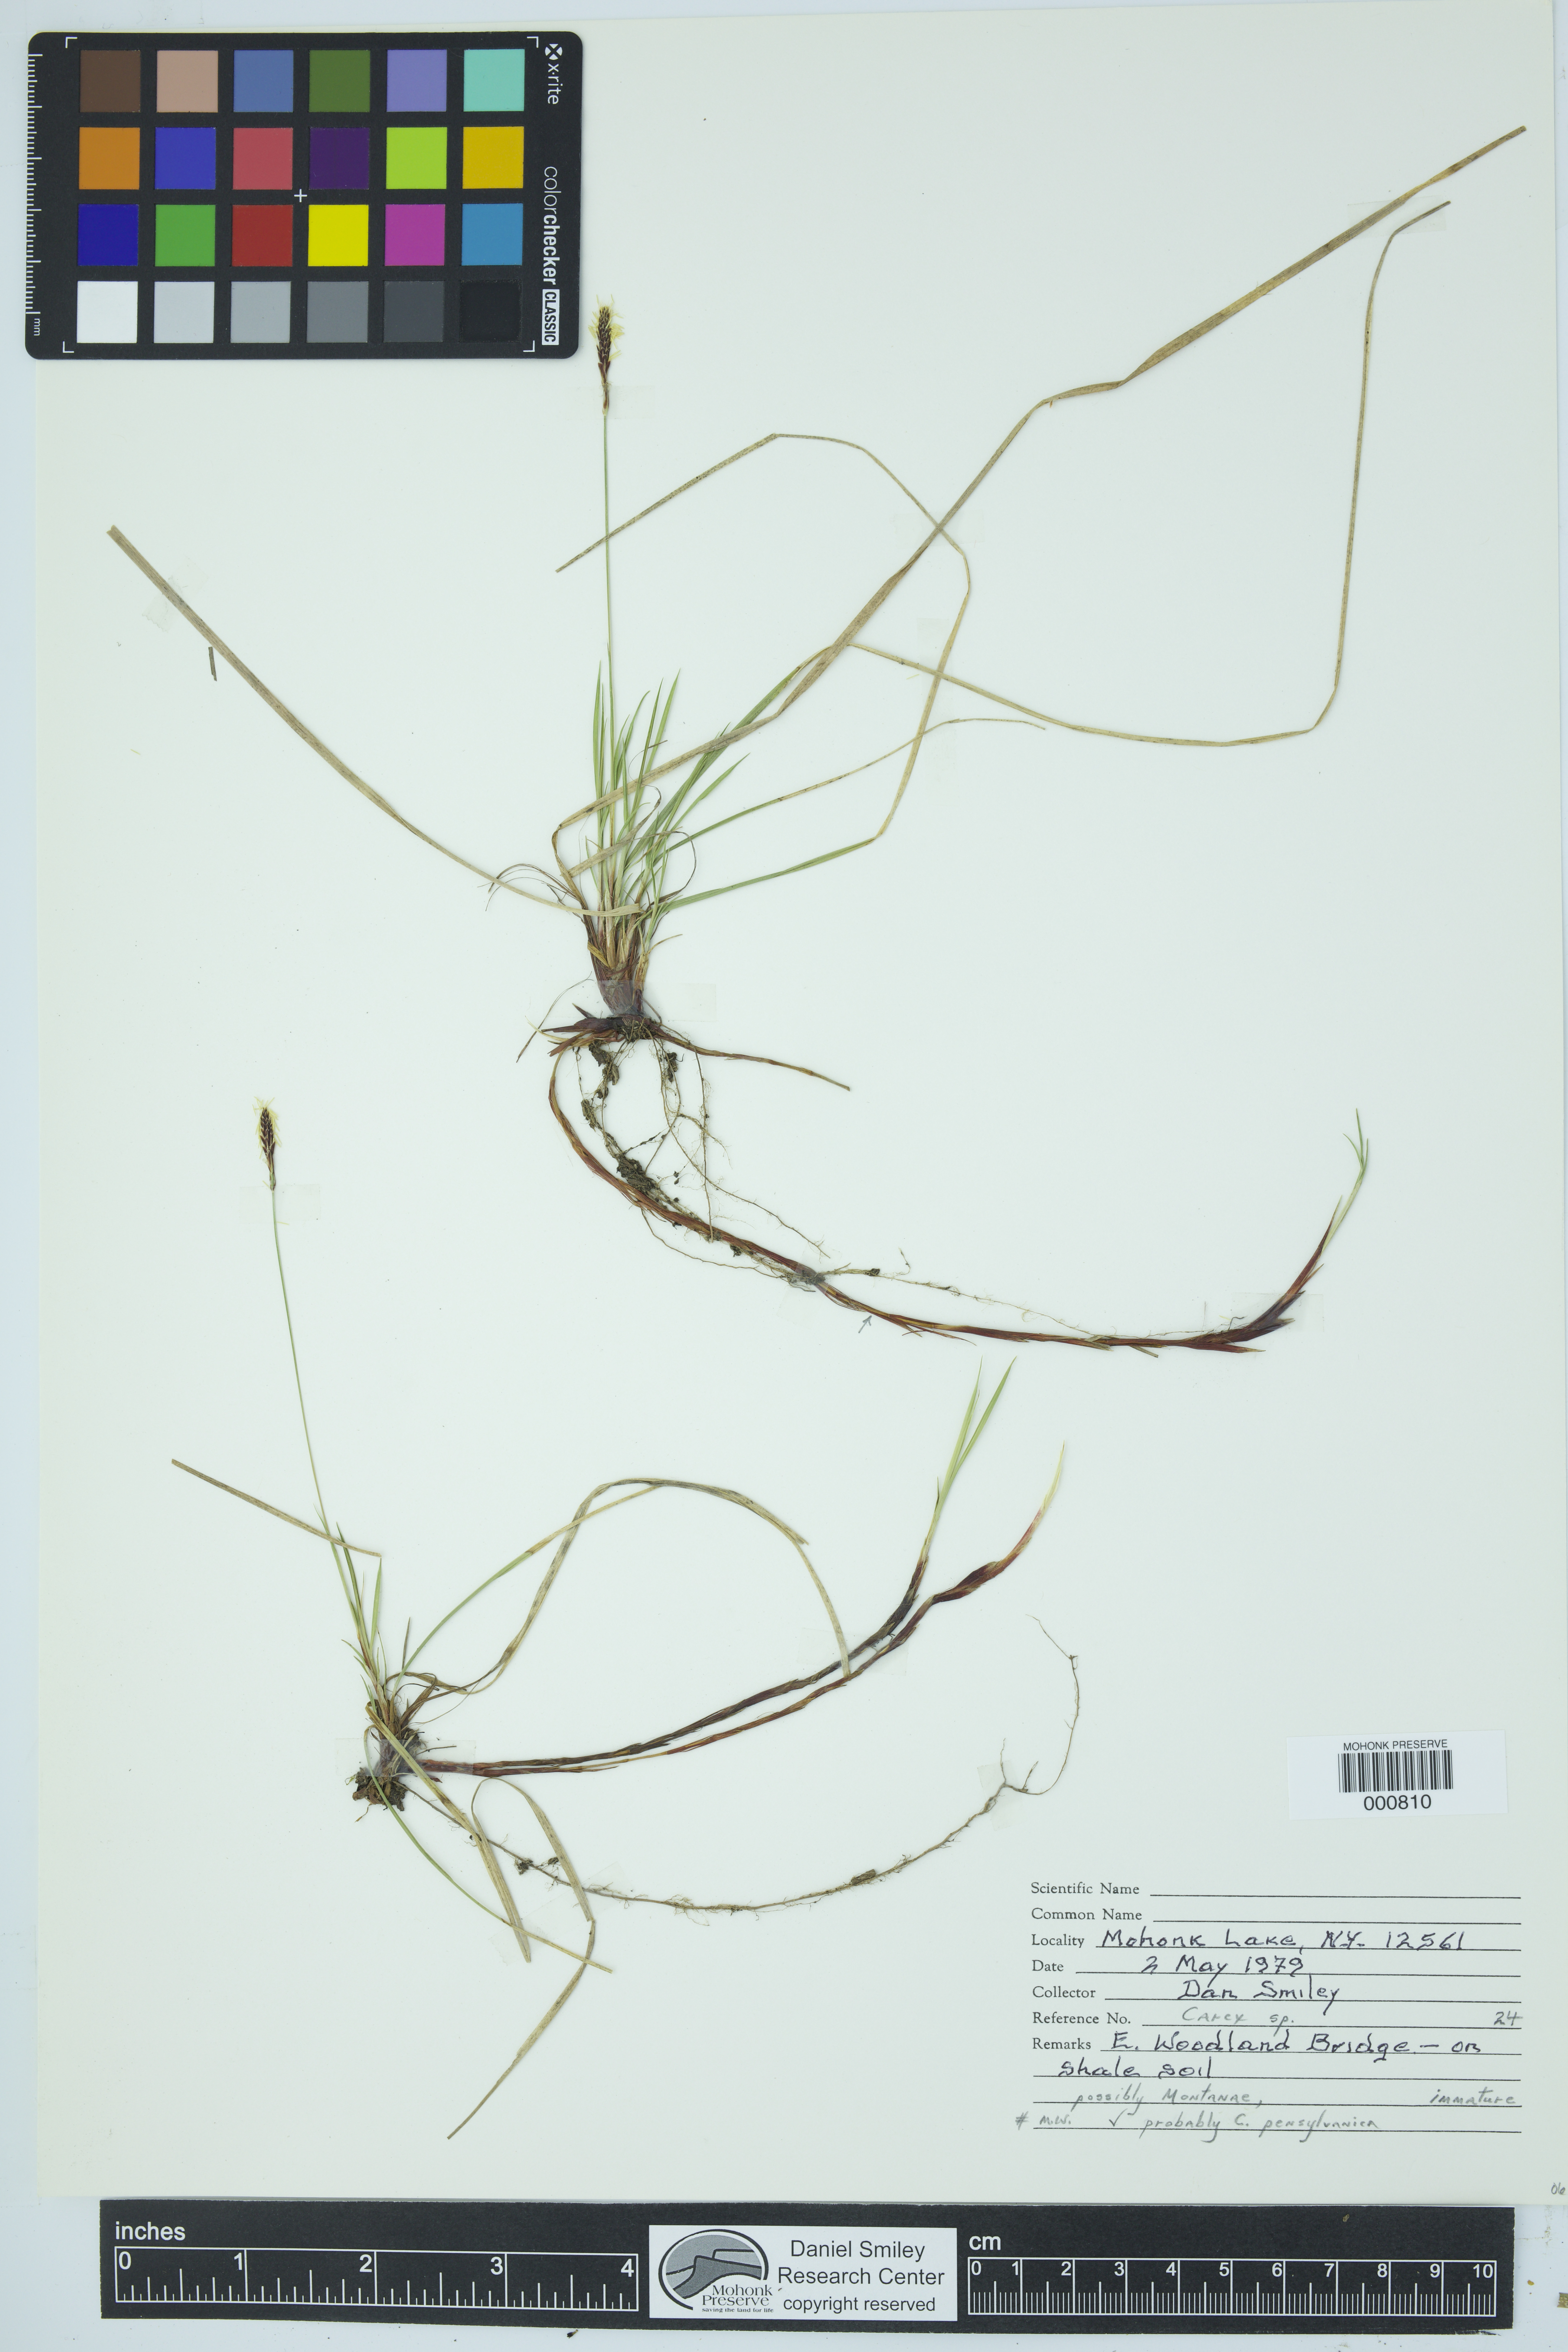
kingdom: Plantae
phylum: Tracheophyta
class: Liliopsida
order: Poales
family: Cyperaceae
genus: Carex
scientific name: Carex pensylvanica
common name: Common oak sedge
